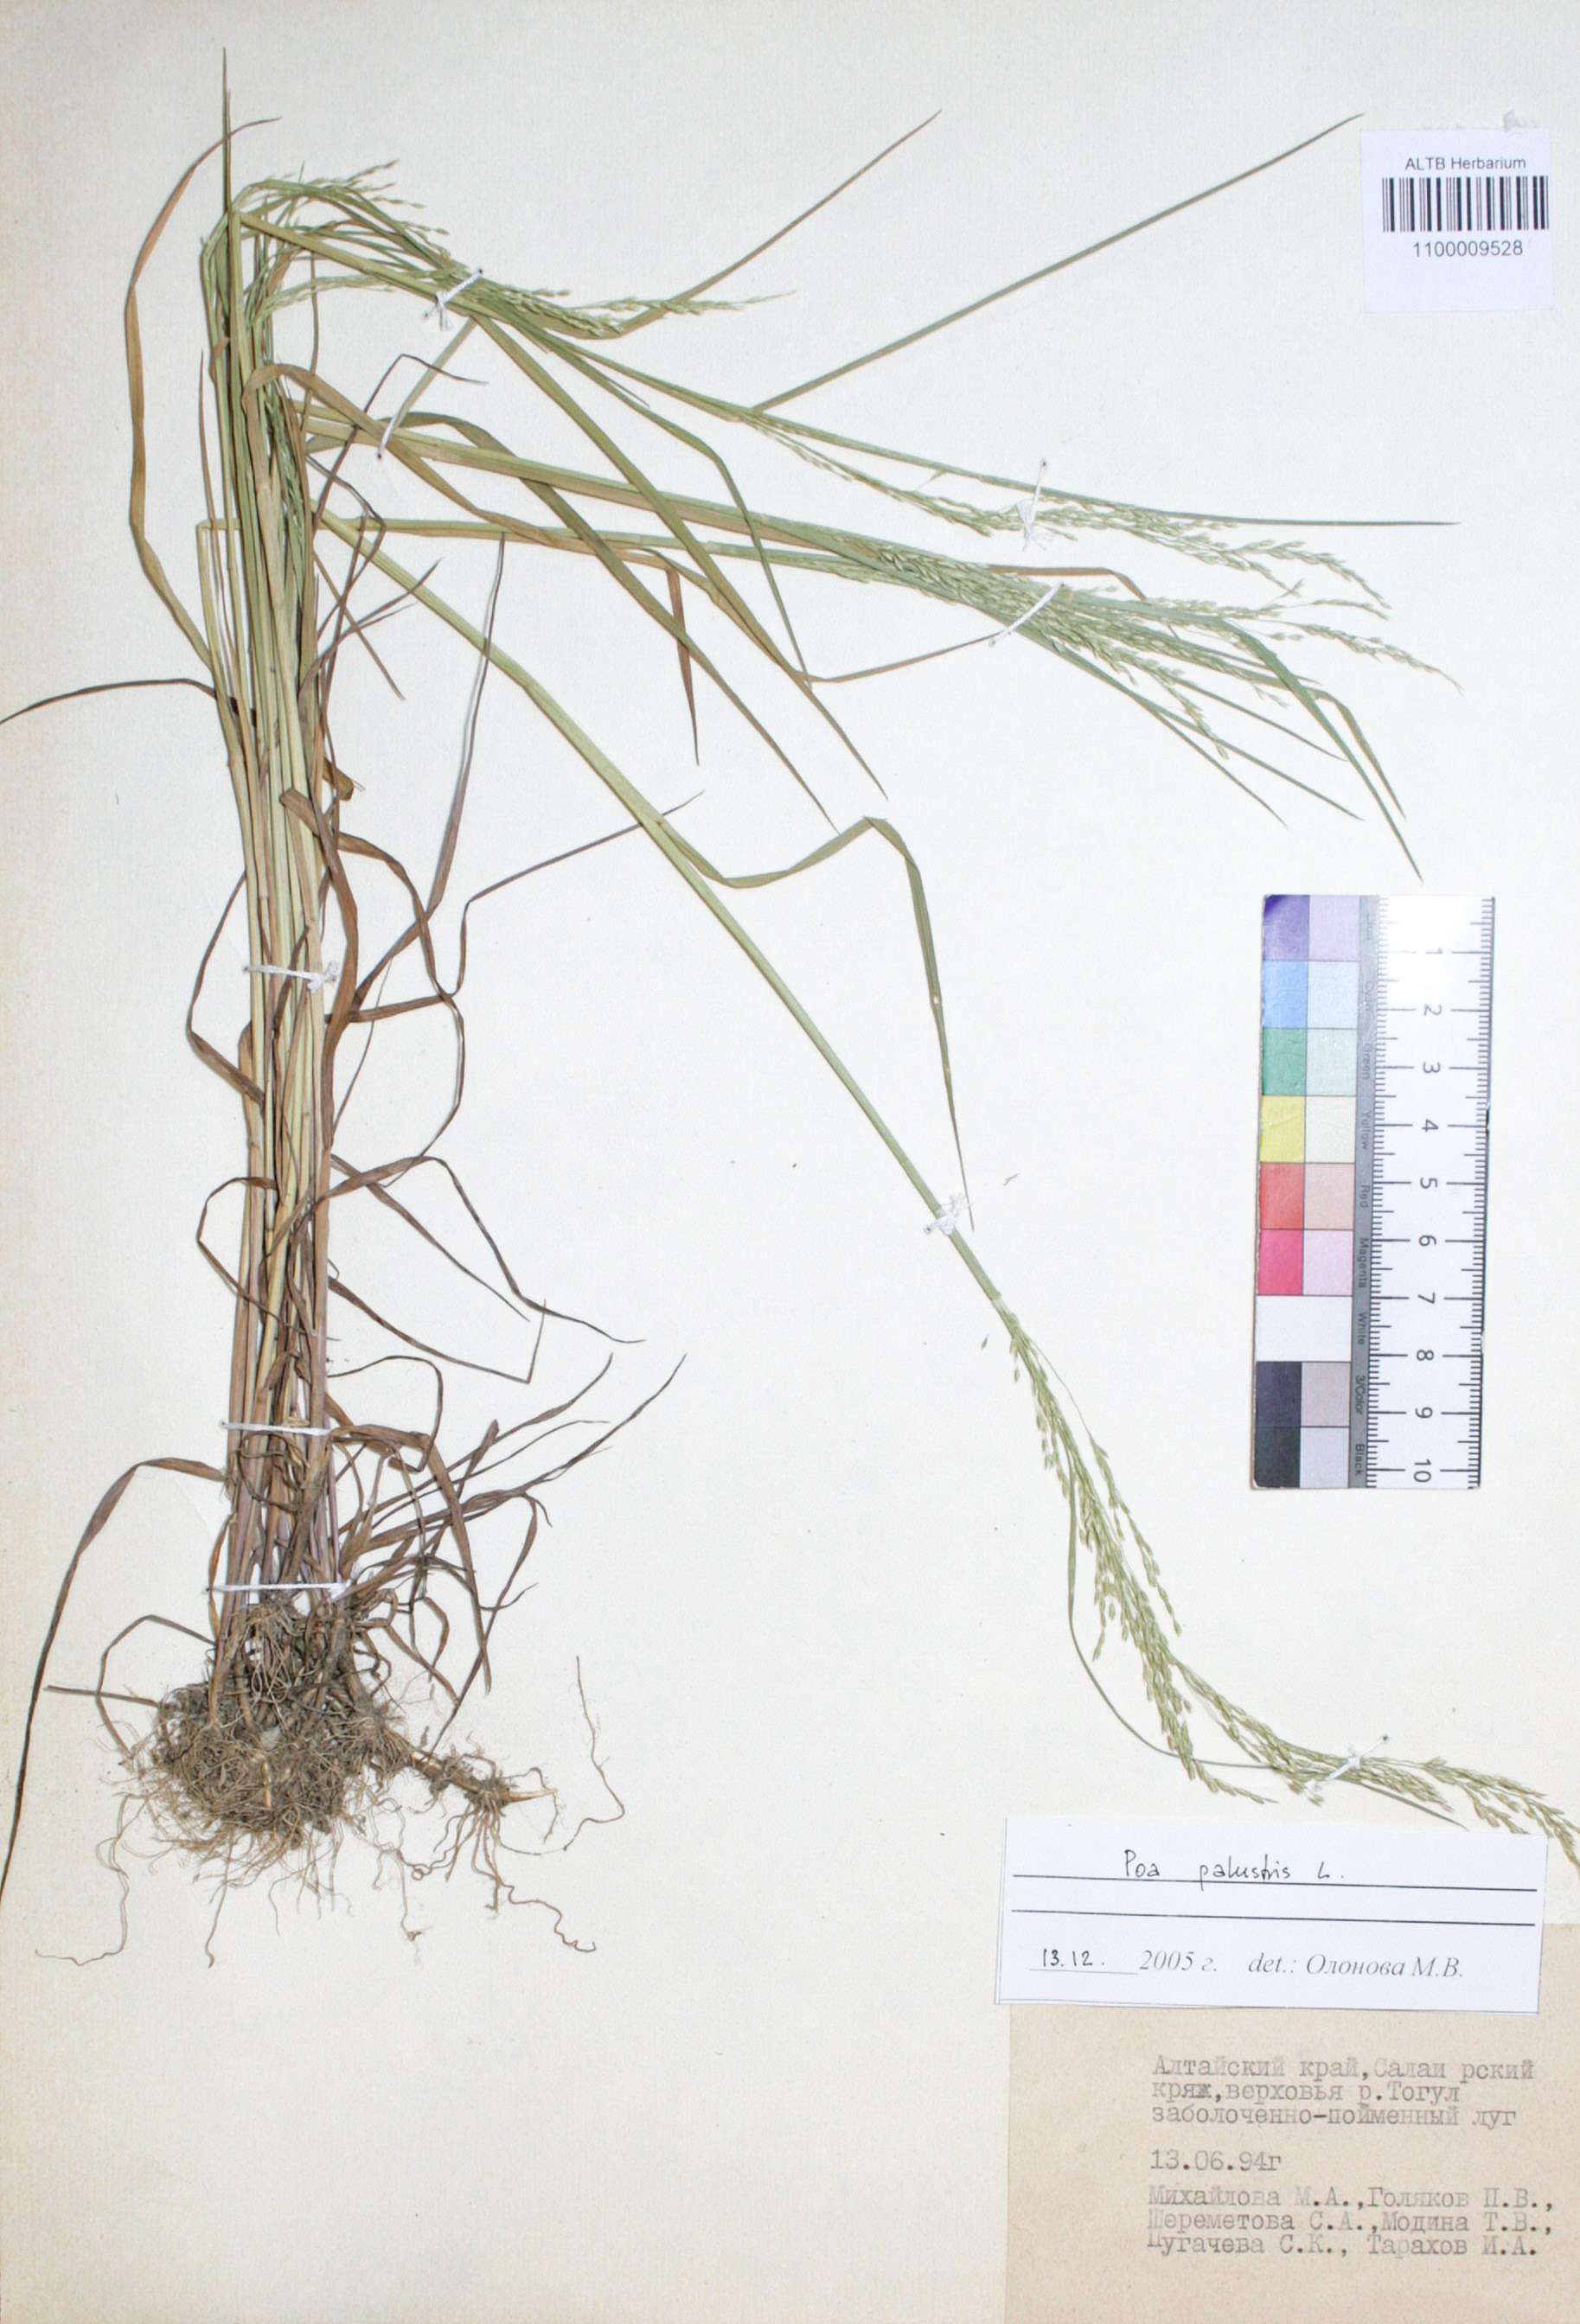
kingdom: Plantae
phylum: Tracheophyta
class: Liliopsida
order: Poales
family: Poaceae
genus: Poa
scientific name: Poa palustris
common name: Swamp meadow-grass
